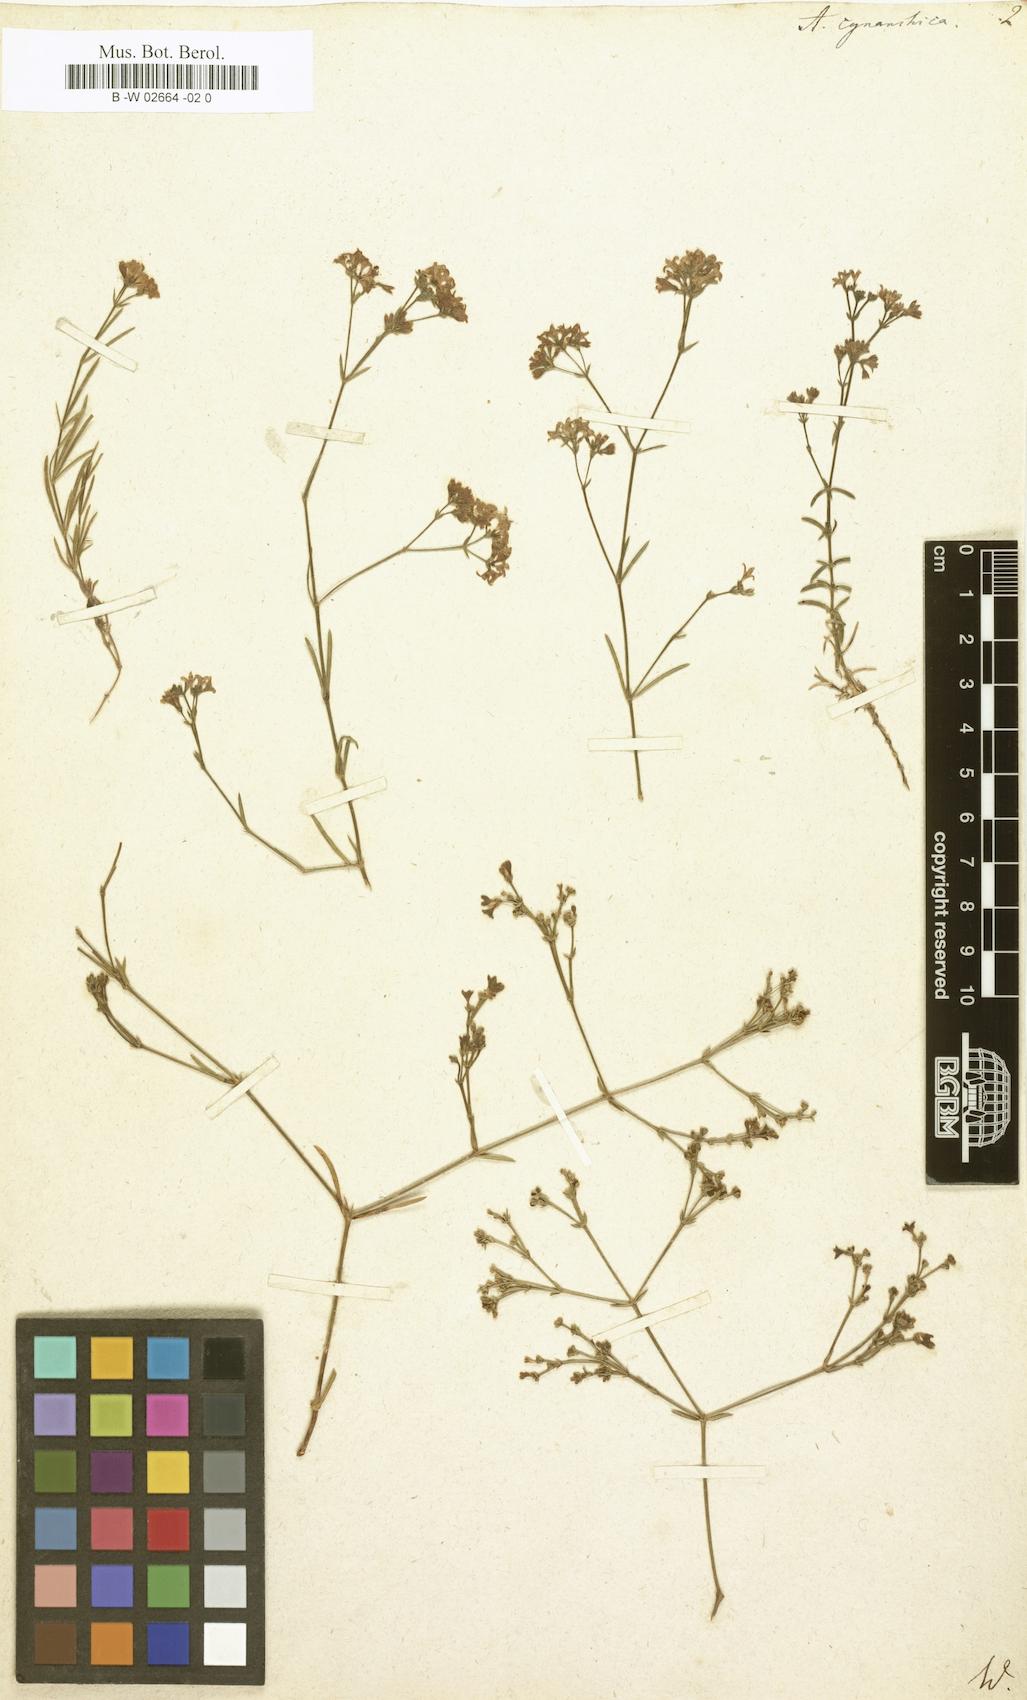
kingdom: Plantae
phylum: Tracheophyta
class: Magnoliopsida
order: Gentianales
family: Rubiaceae
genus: Cynanchica
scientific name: Cynanchica pyrenaica
